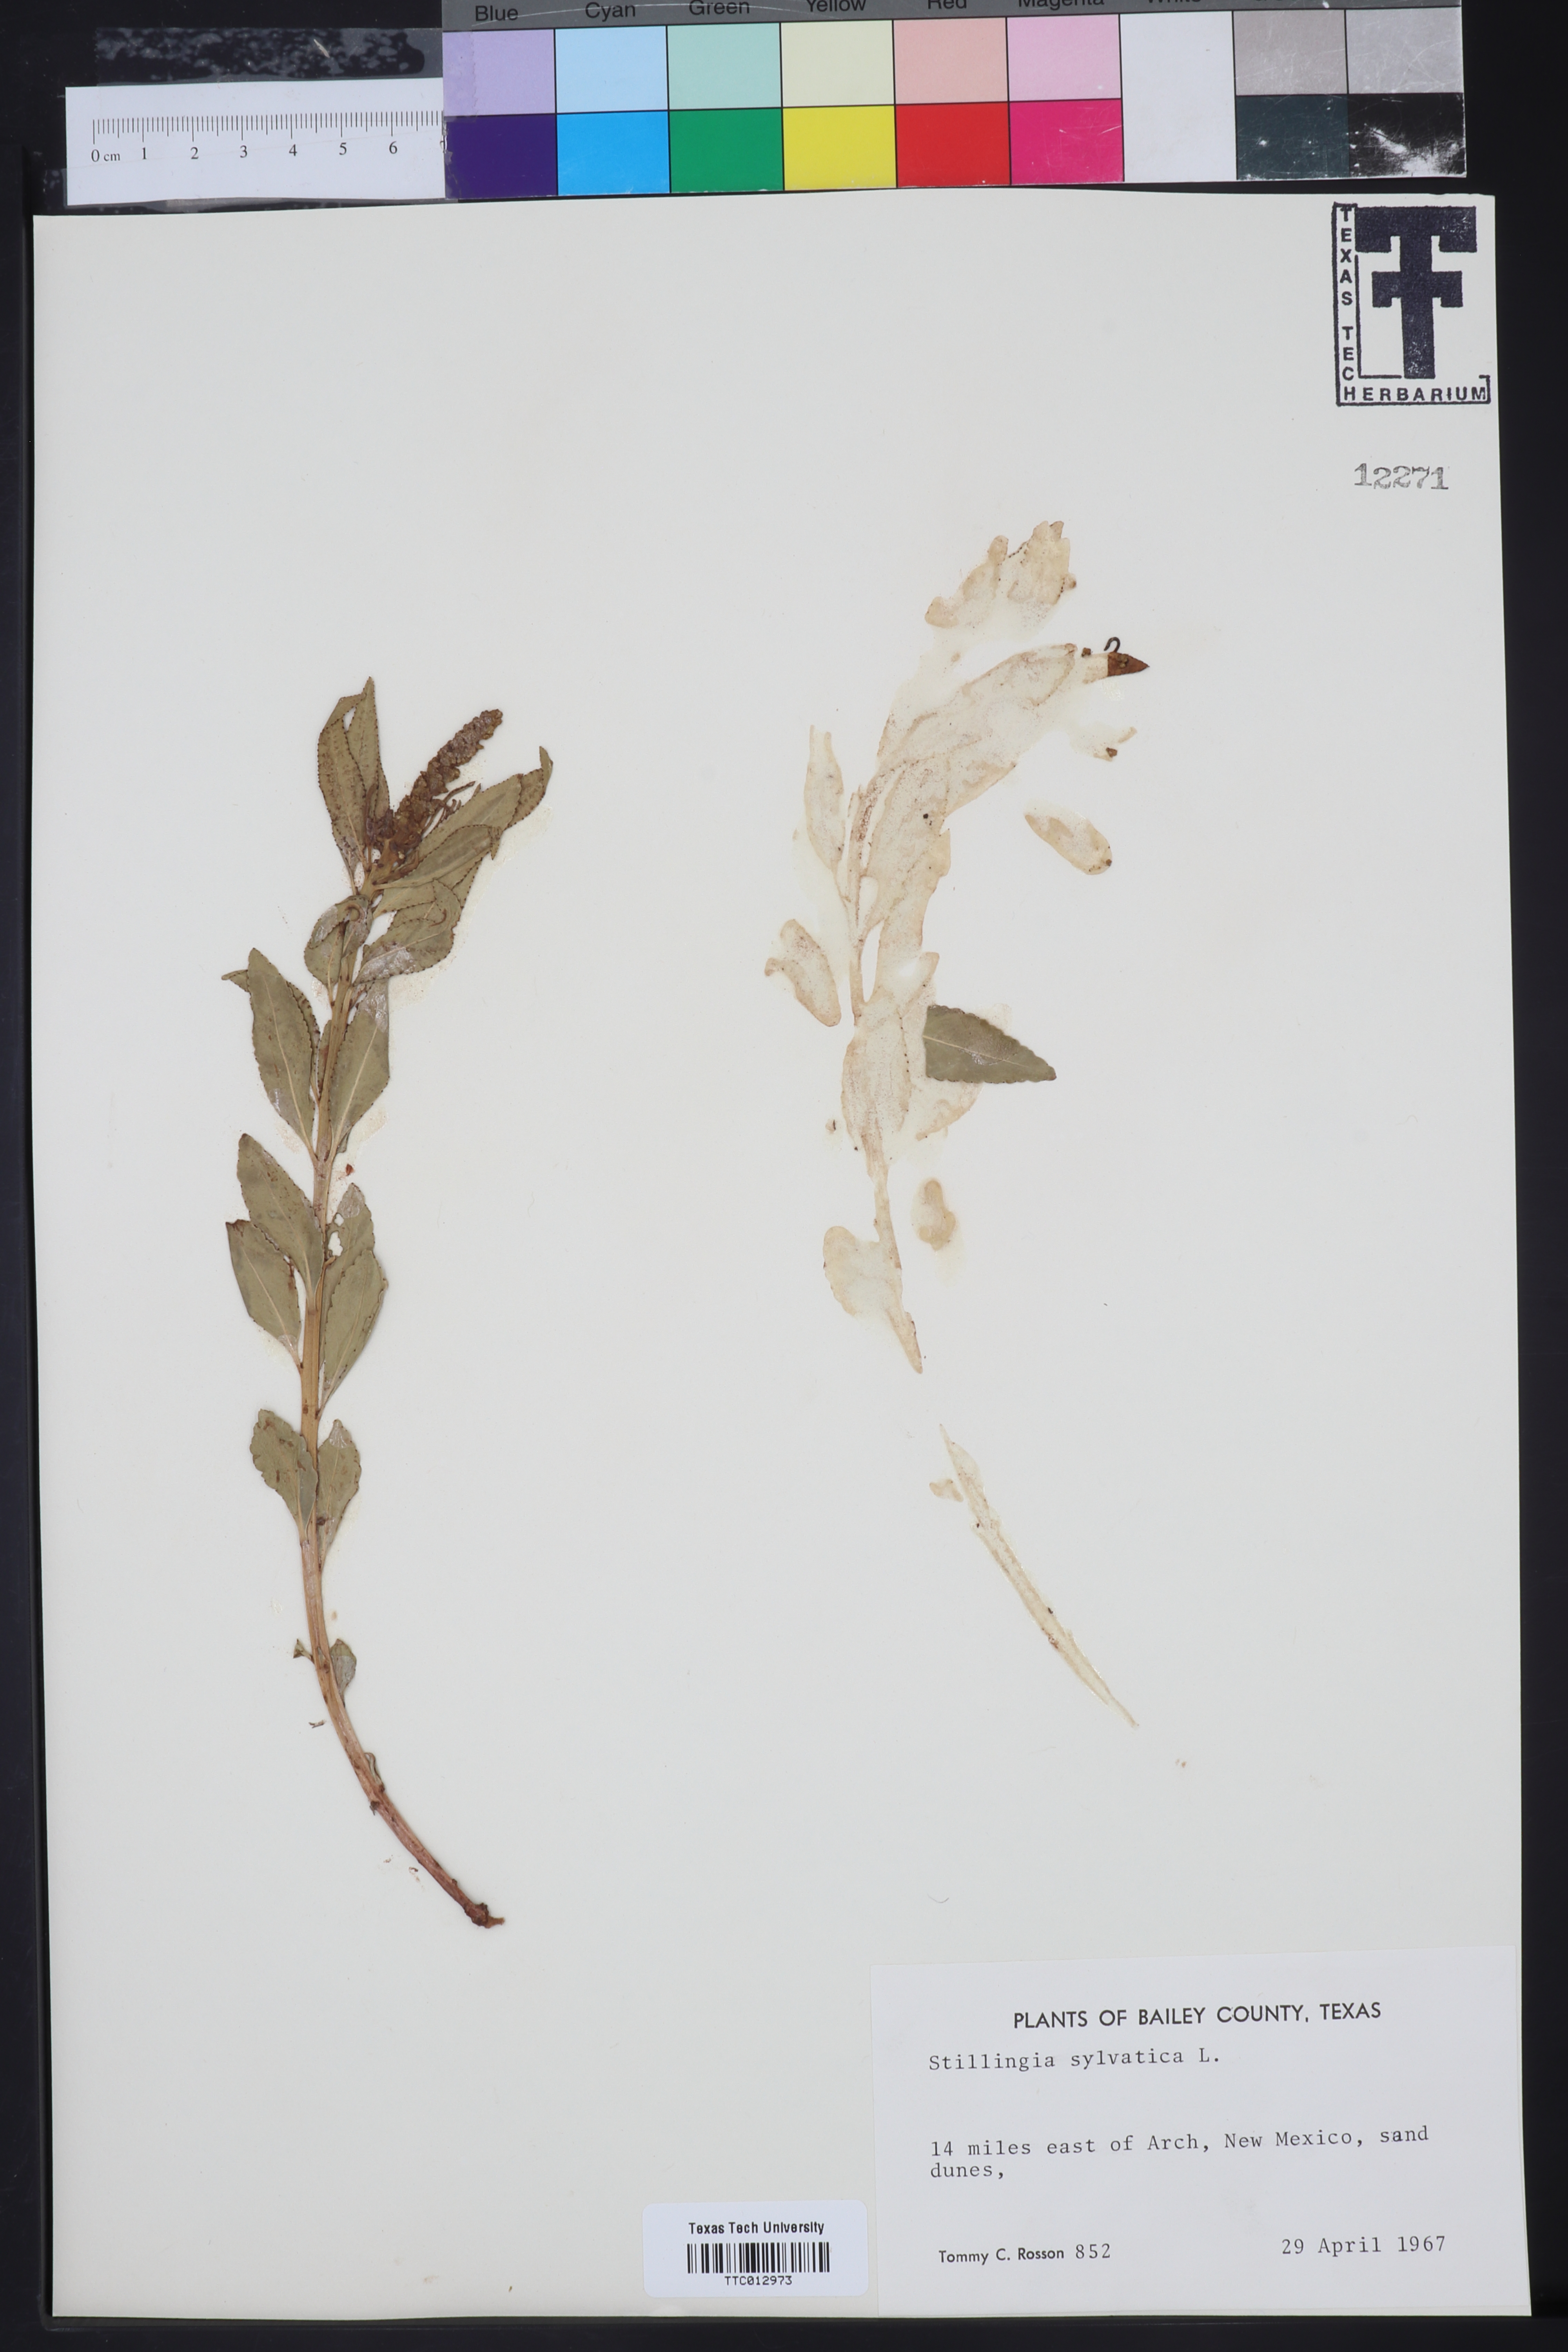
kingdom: Plantae
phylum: Tracheophyta
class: Magnoliopsida
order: Malpighiales
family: Euphorbiaceae
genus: Stillingia
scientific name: Stillingia sylvatica
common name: Queen's-delight
